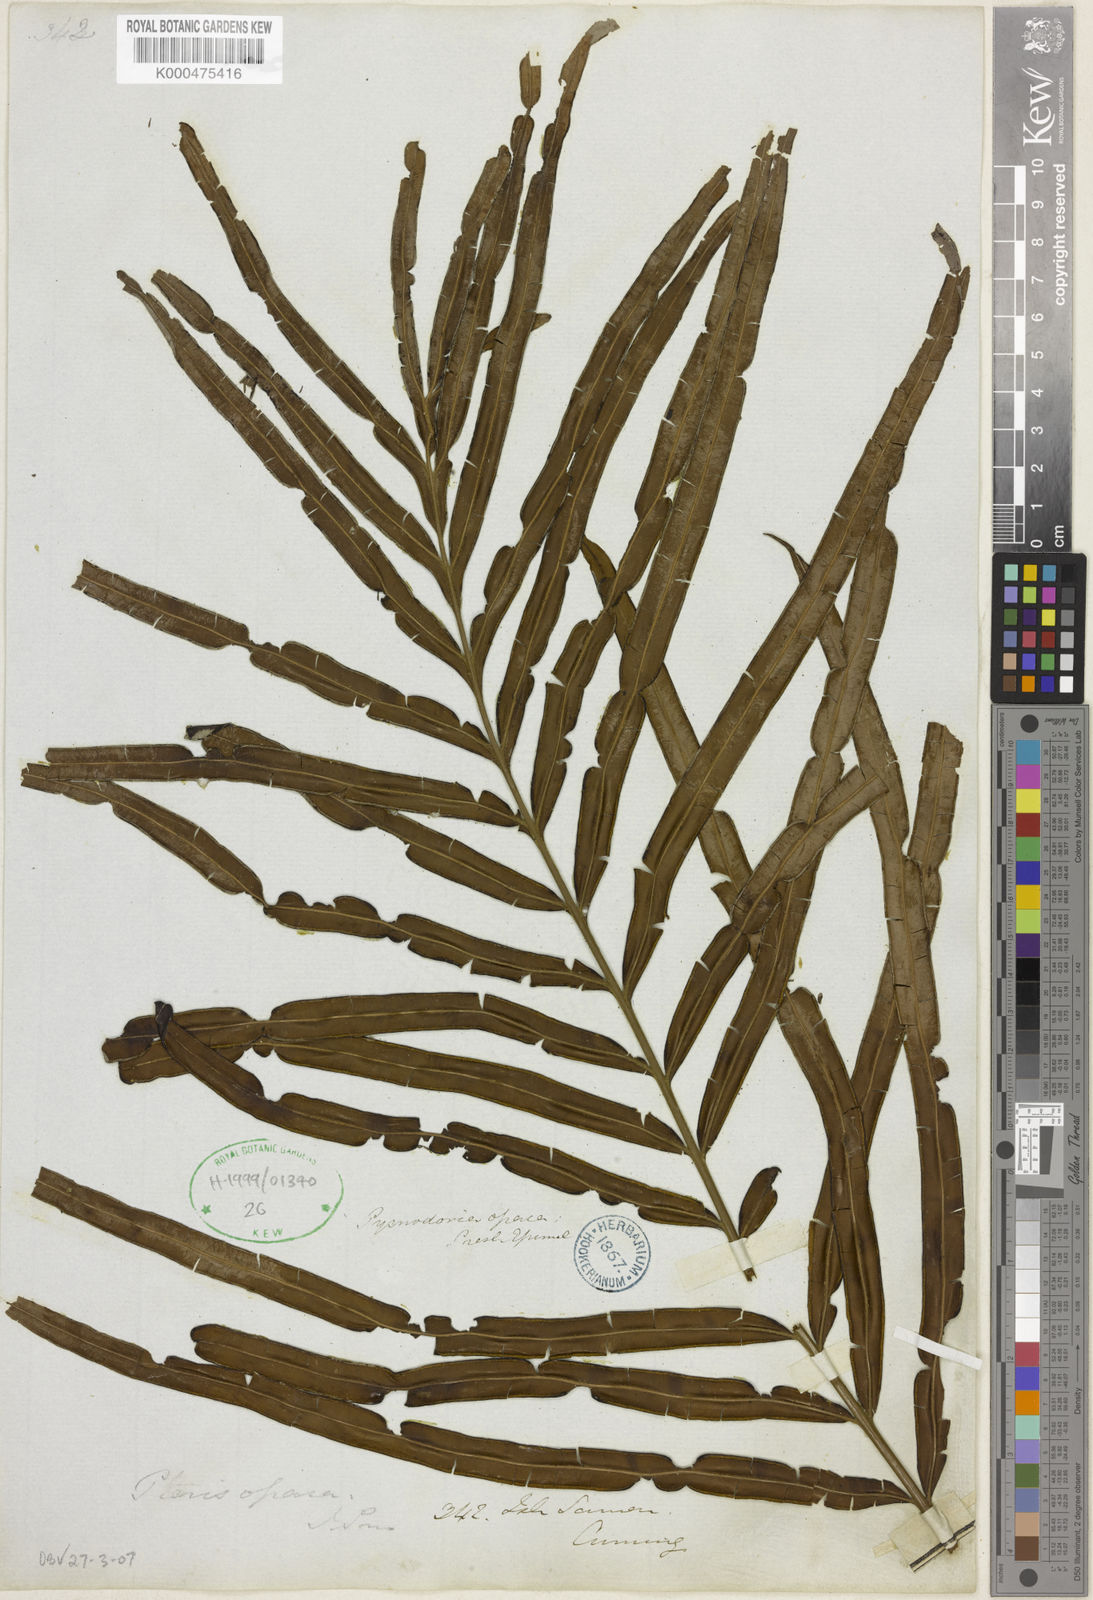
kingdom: Plantae
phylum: Tracheophyta
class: Polypodiopsida
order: Polypodiales
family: Pteridaceae
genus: Pteris
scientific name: Pteris
